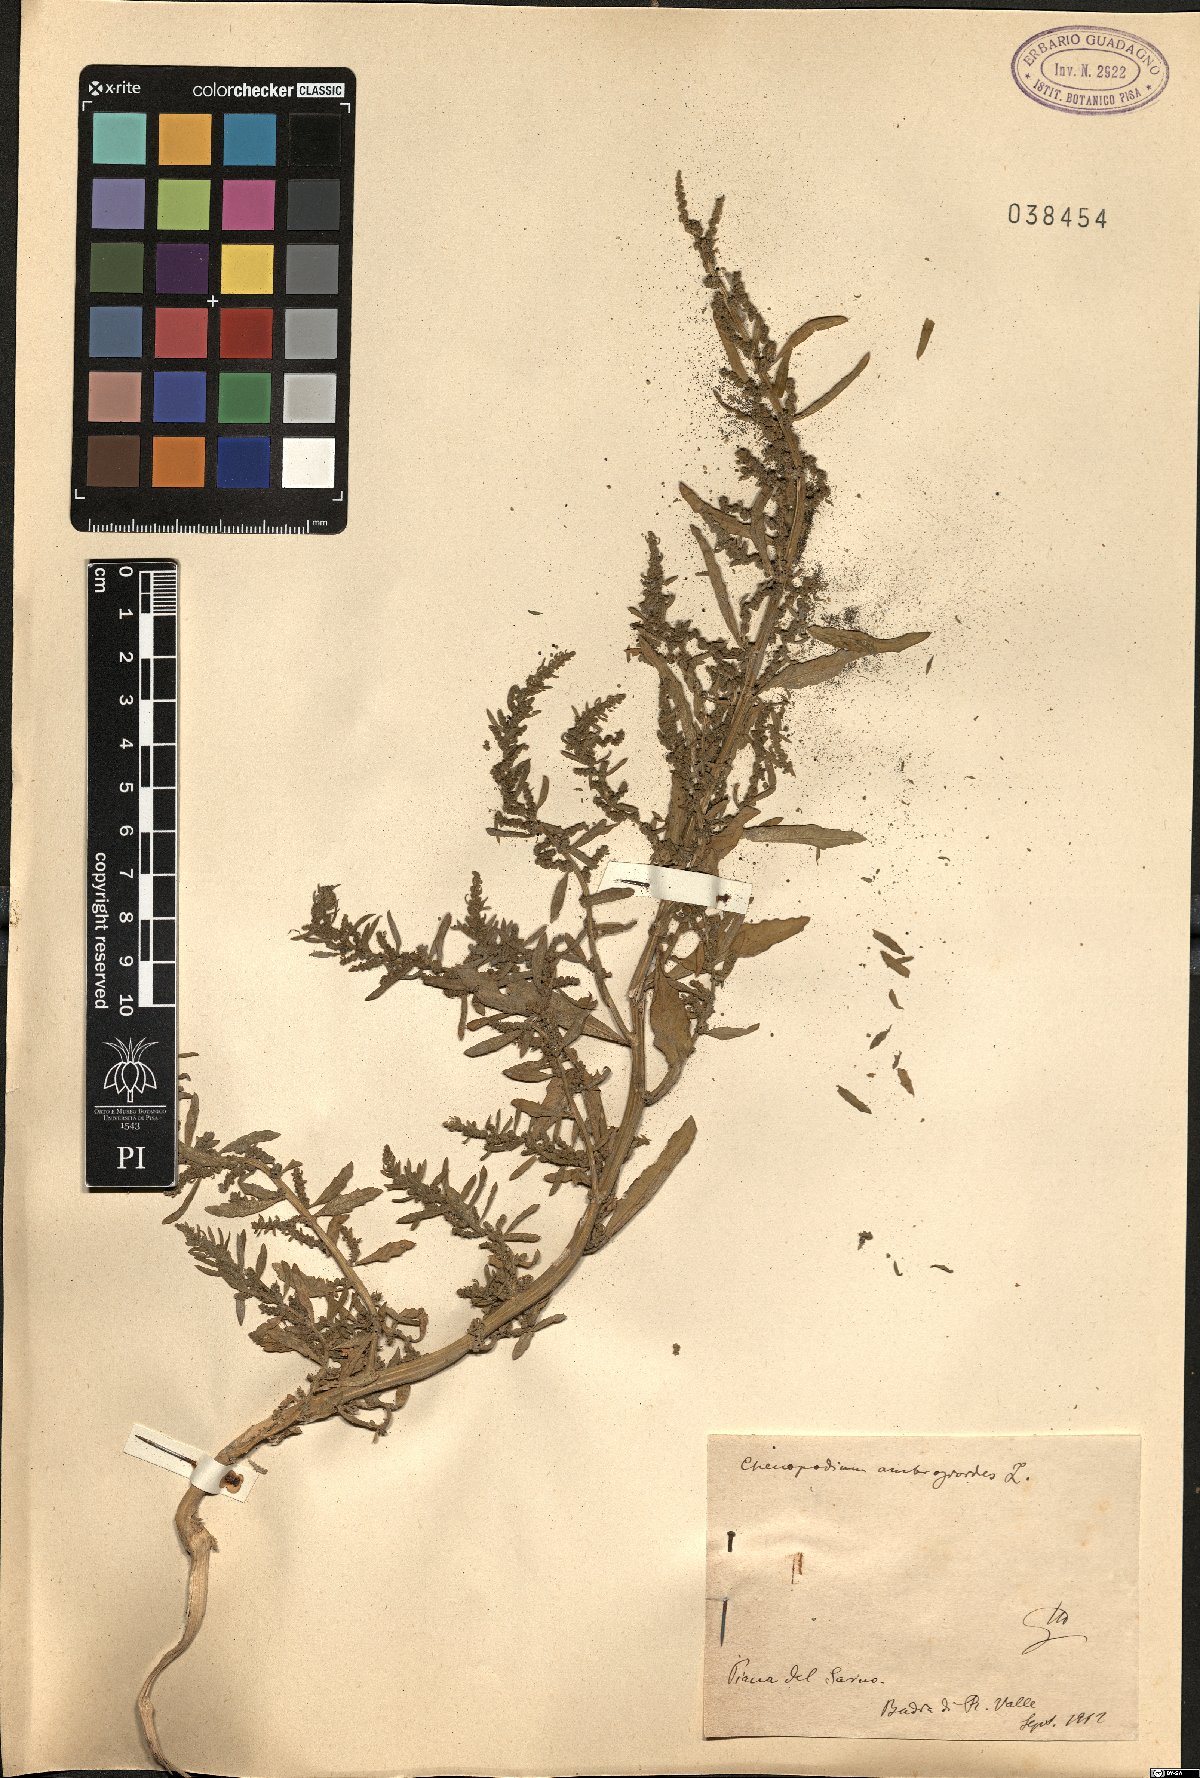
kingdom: Plantae
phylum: Tracheophyta
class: Magnoliopsida
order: Caryophyllales
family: Amaranthaceae
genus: Dysphania
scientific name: Dysphania ambrosioides
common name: Wormseed
